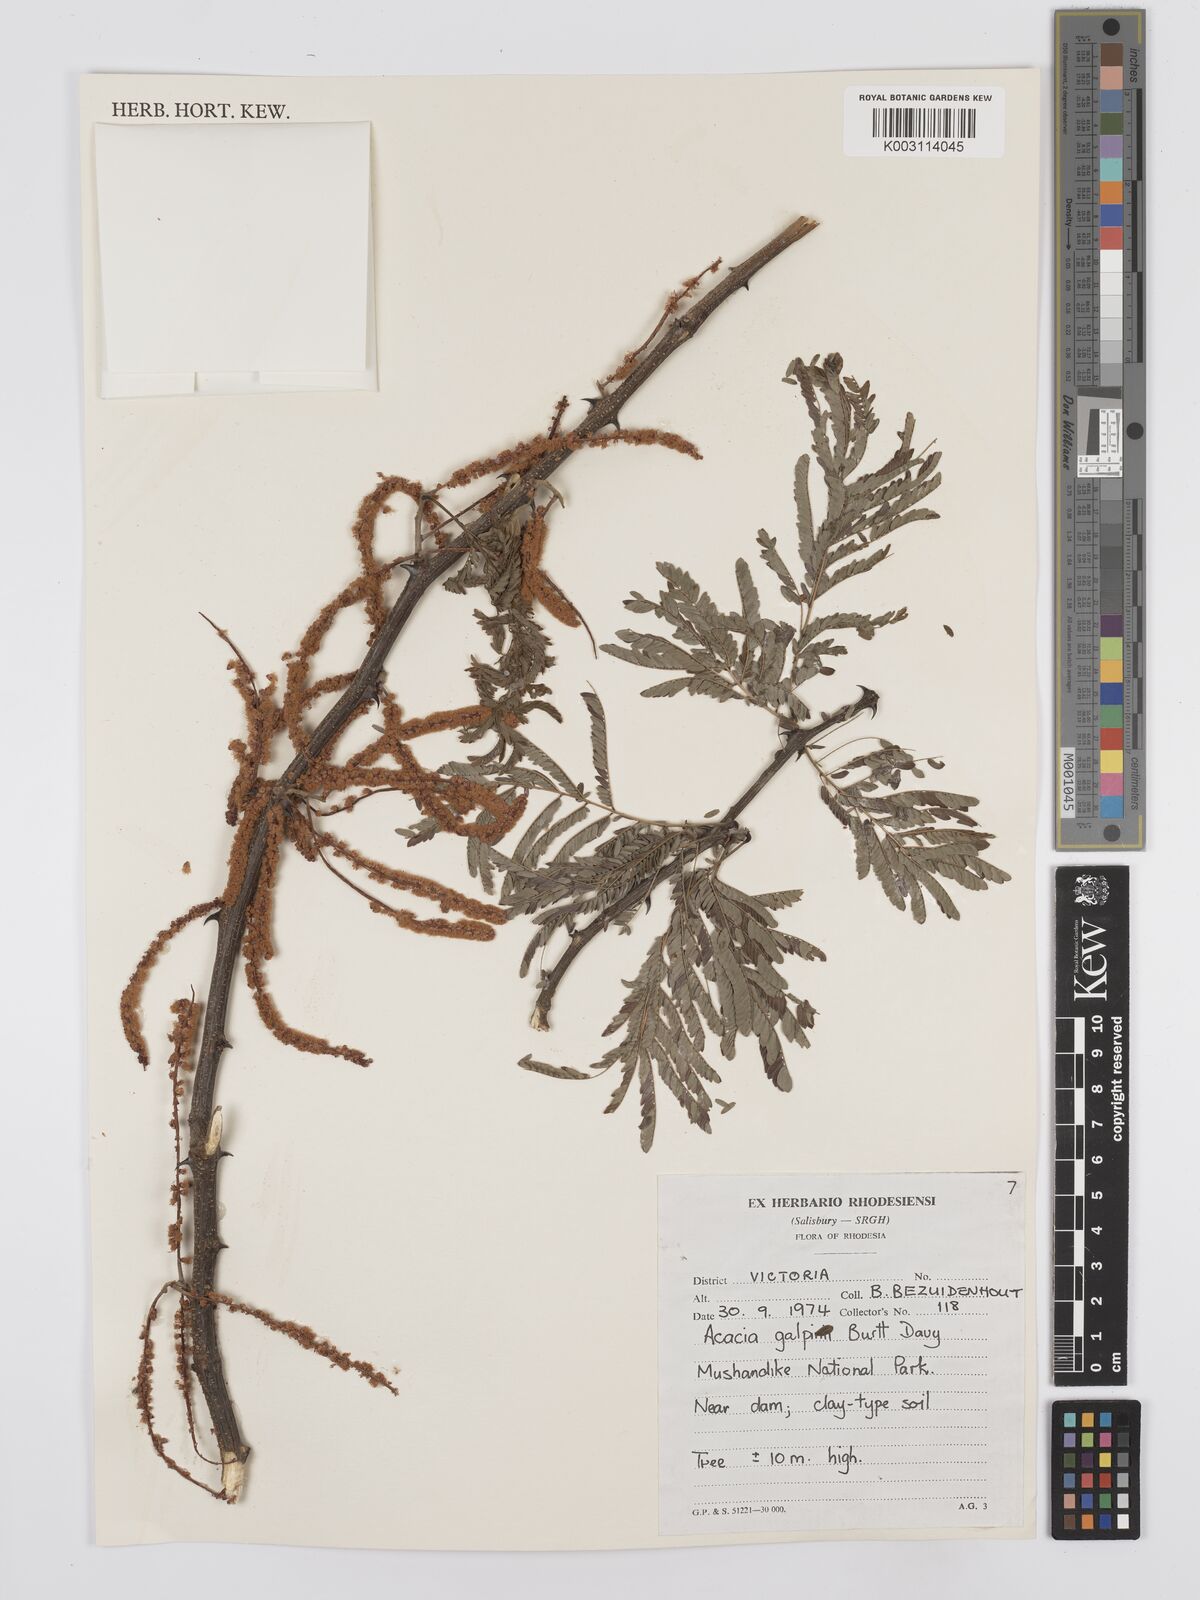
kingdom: Plantae
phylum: Tracheophyta
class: Magnoliopsida
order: Fabales
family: Fabaceae
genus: Senegalia
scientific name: Senegalia galpinii
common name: Monkey-thorn
